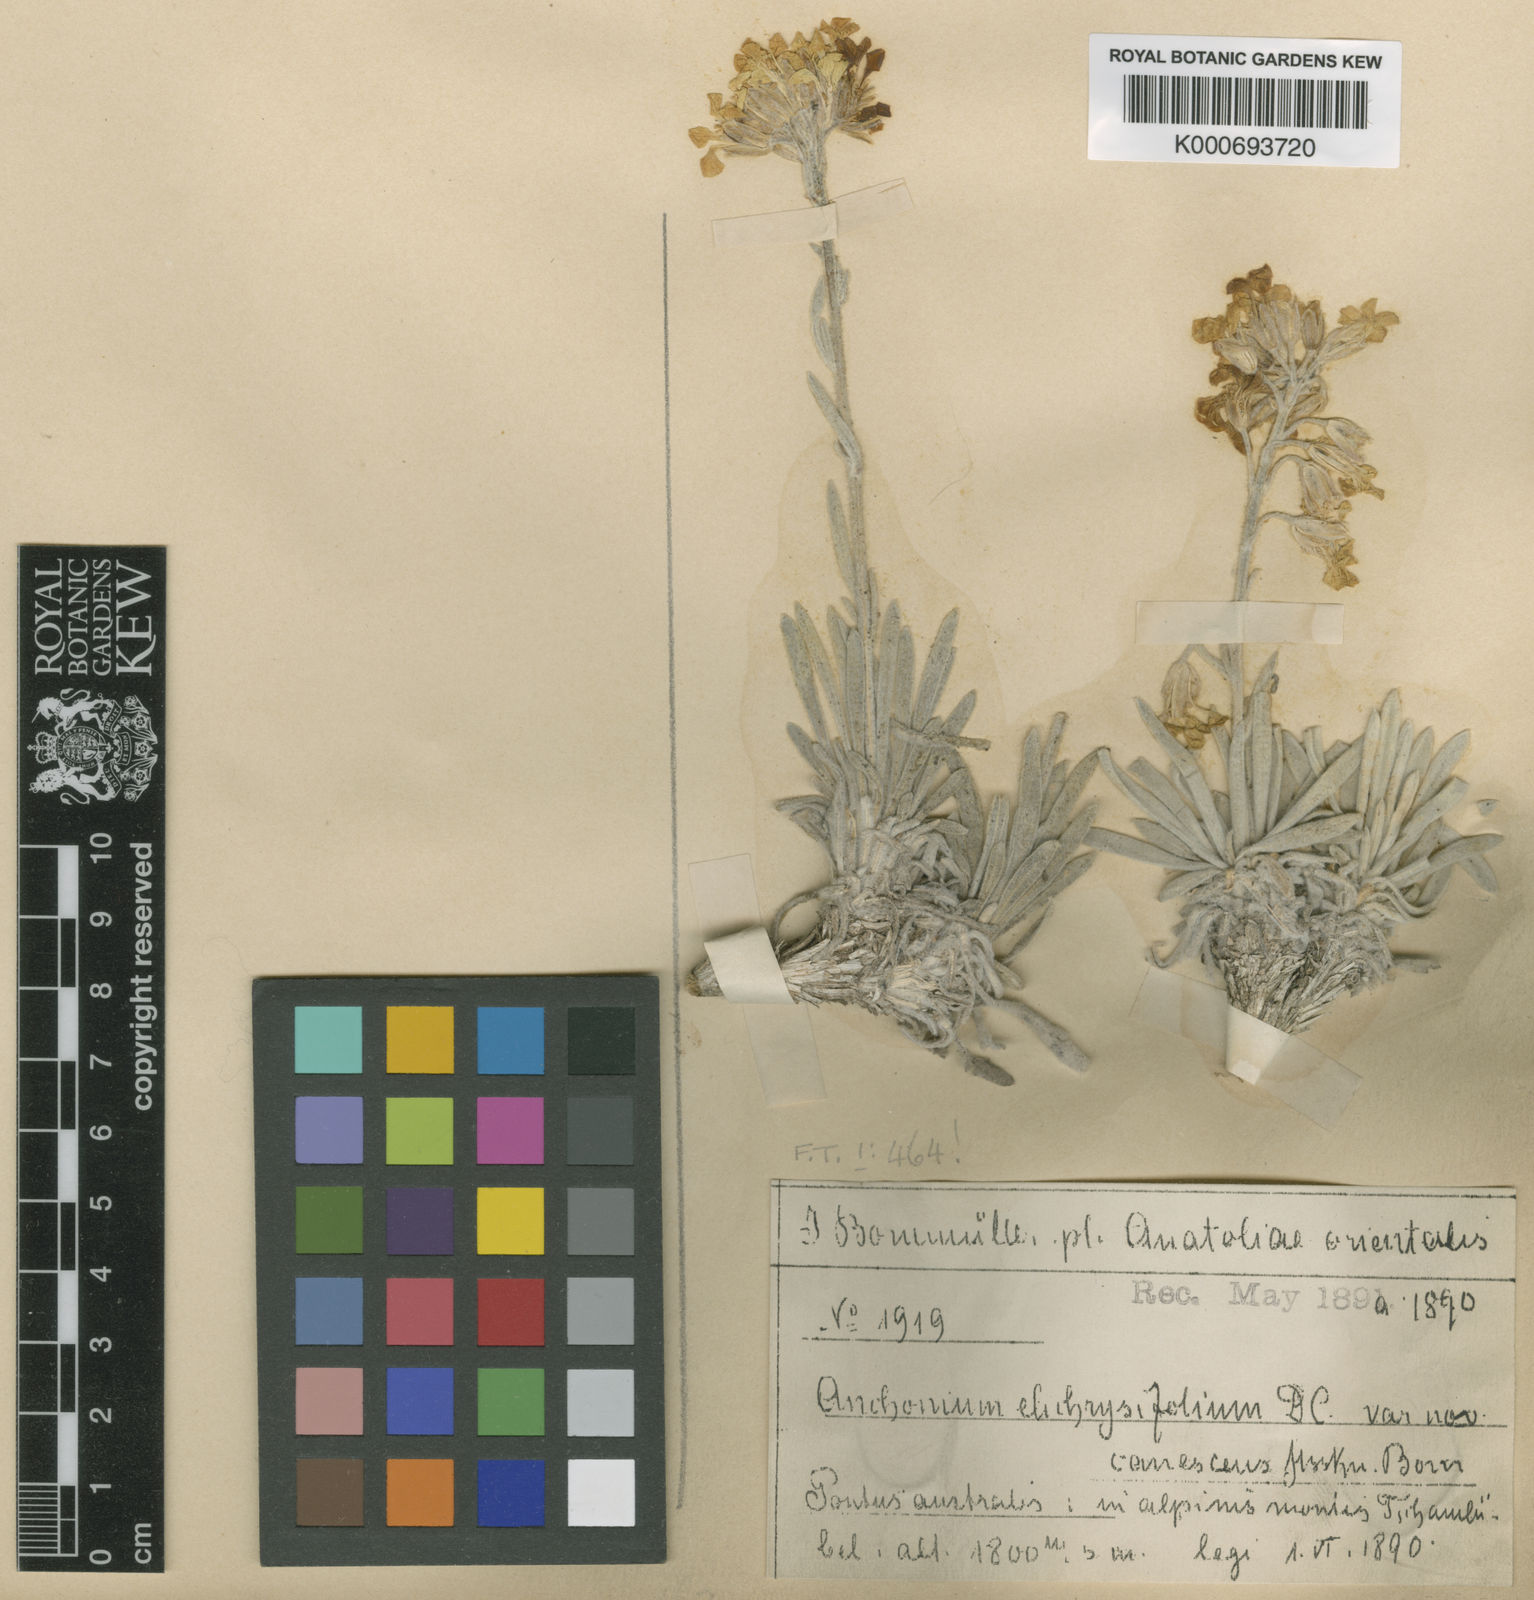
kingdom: Plantae
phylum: Tracheophyta
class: Magnoliopsida
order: Brassicales
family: Brassicaceae
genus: Anchonium
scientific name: Anchonium elichrysifolium
